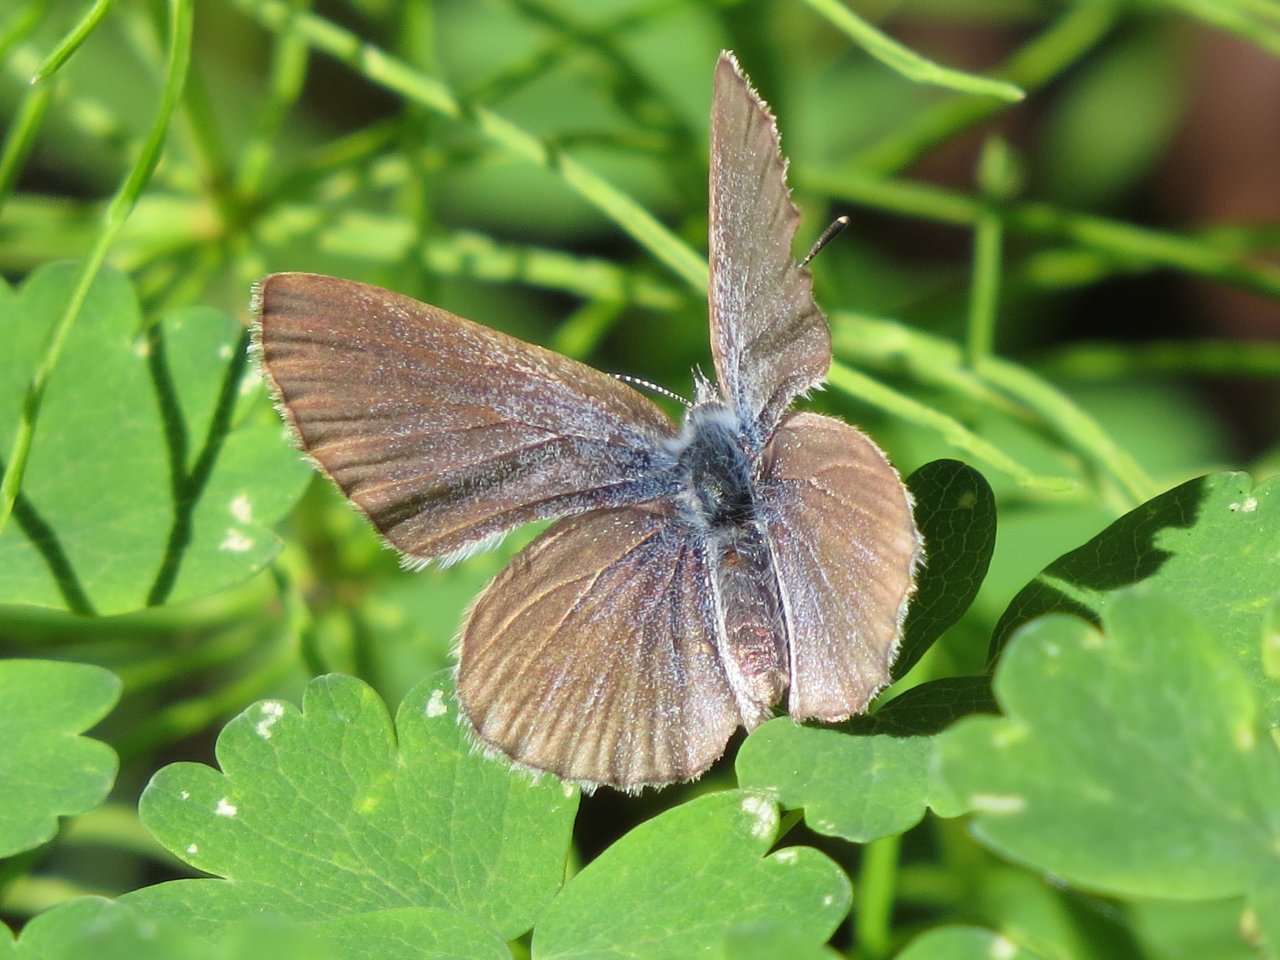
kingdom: Animalia
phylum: Arthropoda
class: Insecta
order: Lepidoptera
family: Lycaenidae
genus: Glaucopsyche
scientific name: Glaucopsyche lygdamus
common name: Silvery Blue
